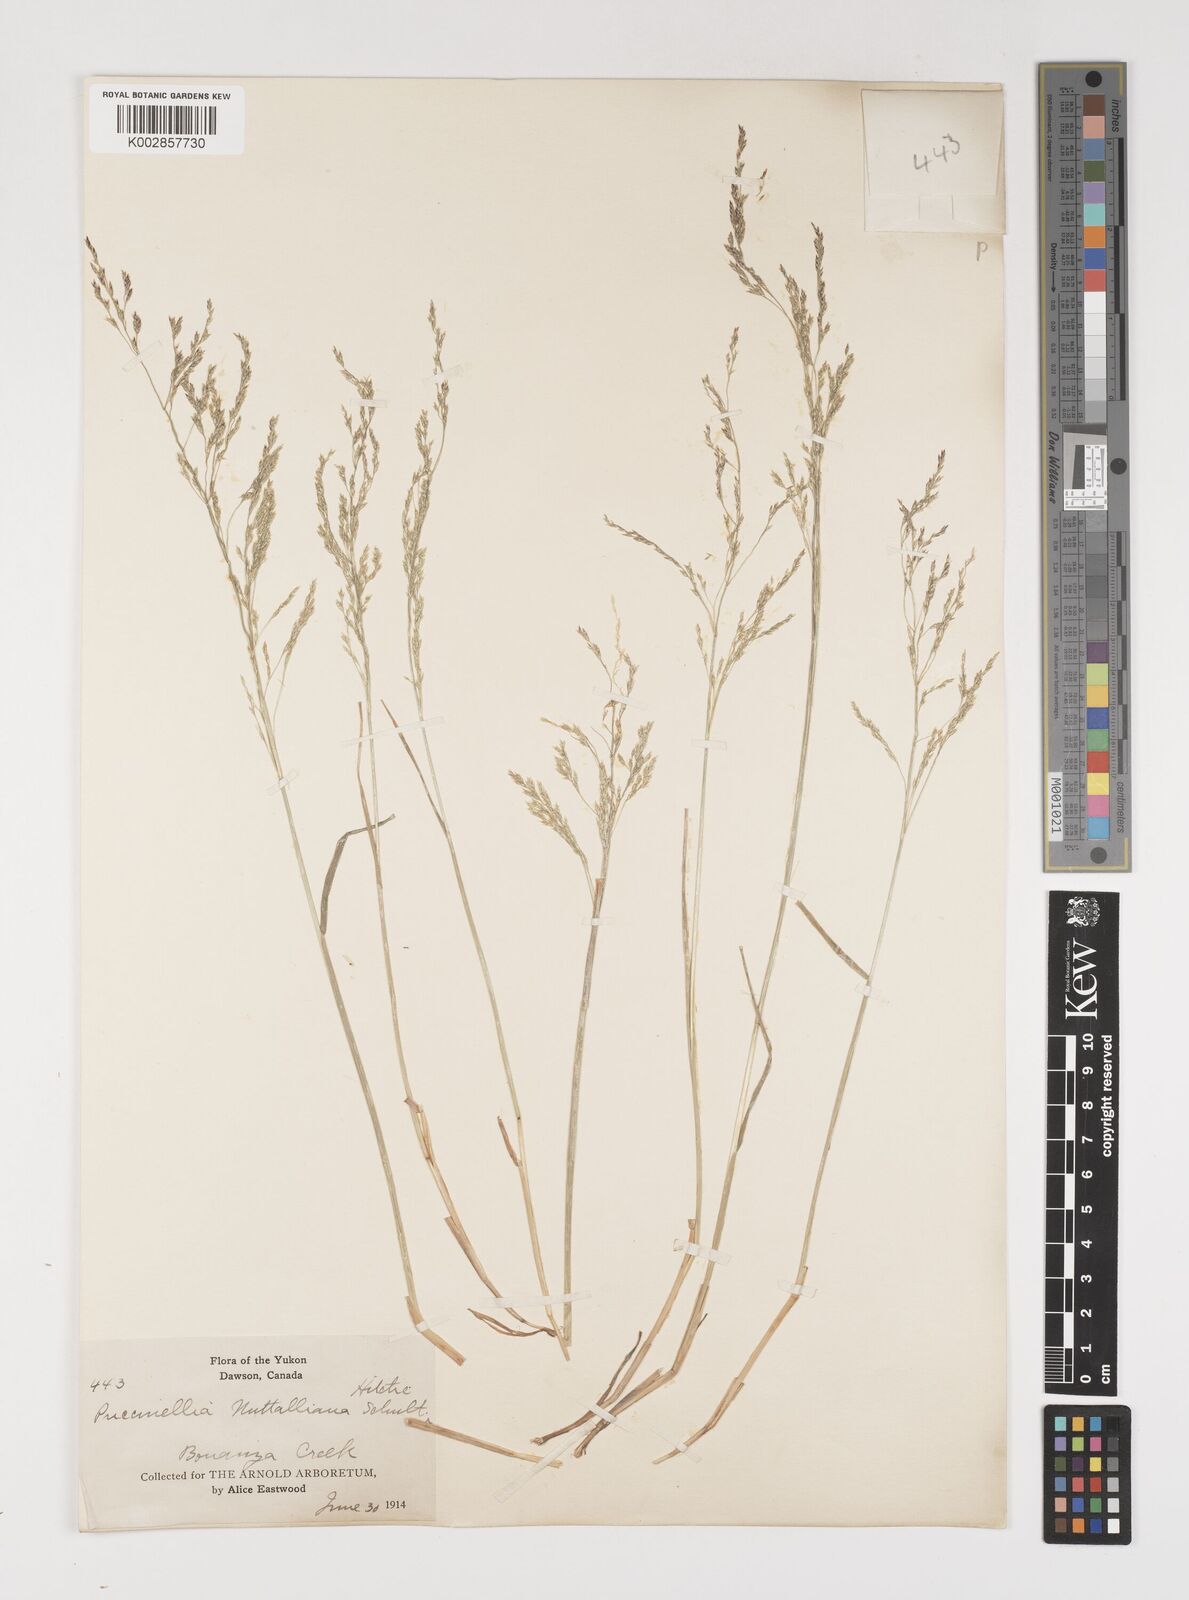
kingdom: Plantae
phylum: Tracheophyta
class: Liliopsida
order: Poales
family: Poaceae
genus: Puccinellia
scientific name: Puccinellia nuttalliana
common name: Nuttall's alkali grass
